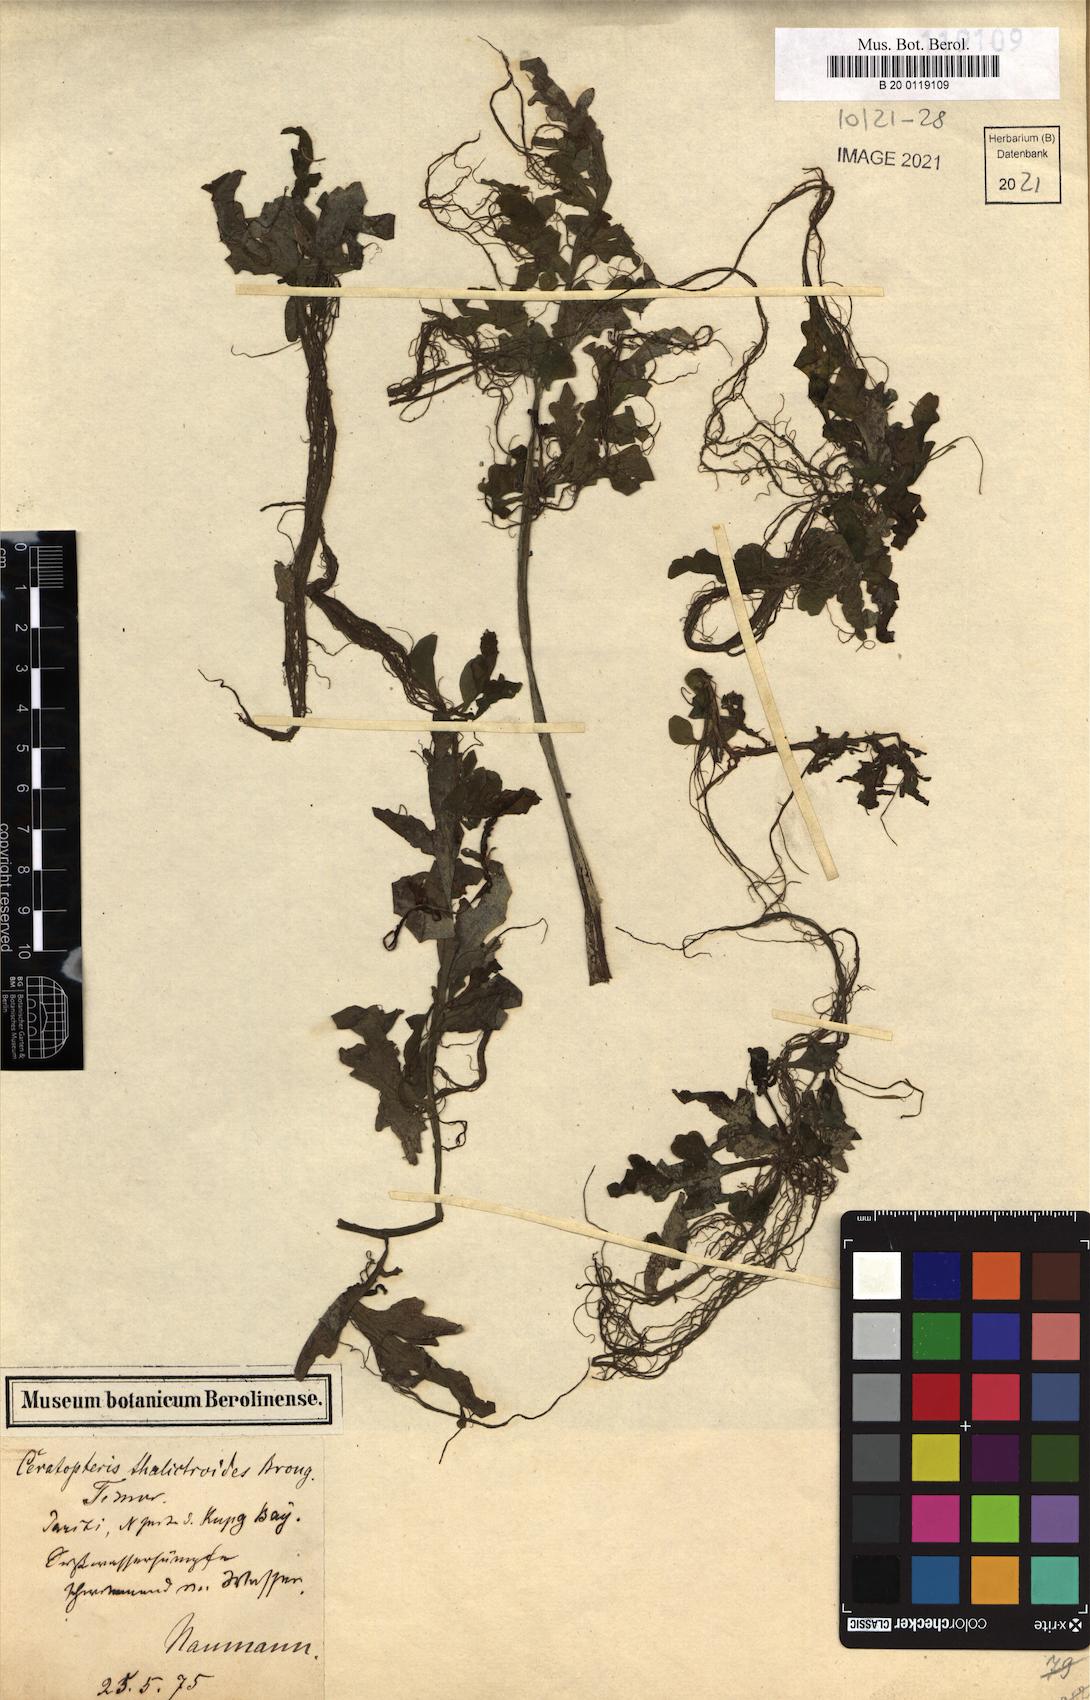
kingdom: Plantae
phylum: Tracheophyta
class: Polypodiopsida
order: Polypodiales
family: Pteridaceae
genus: Ceratopteris
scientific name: Ceratopteris thalictroides
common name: Water fern
